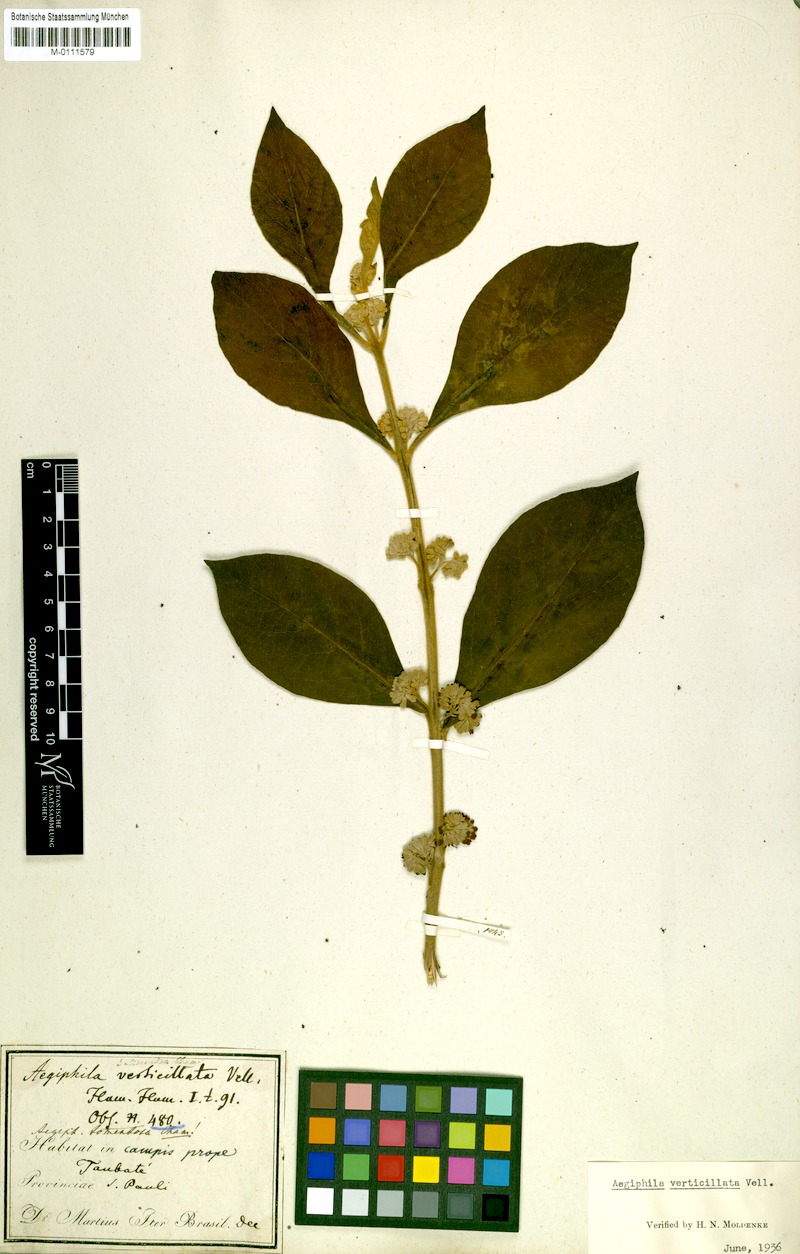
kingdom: Plantae
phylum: Tracheophyta
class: Magnoliopsida
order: Lamiales
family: Lamiaceae
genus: Aegiphila
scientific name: Aegiphila verticillata
